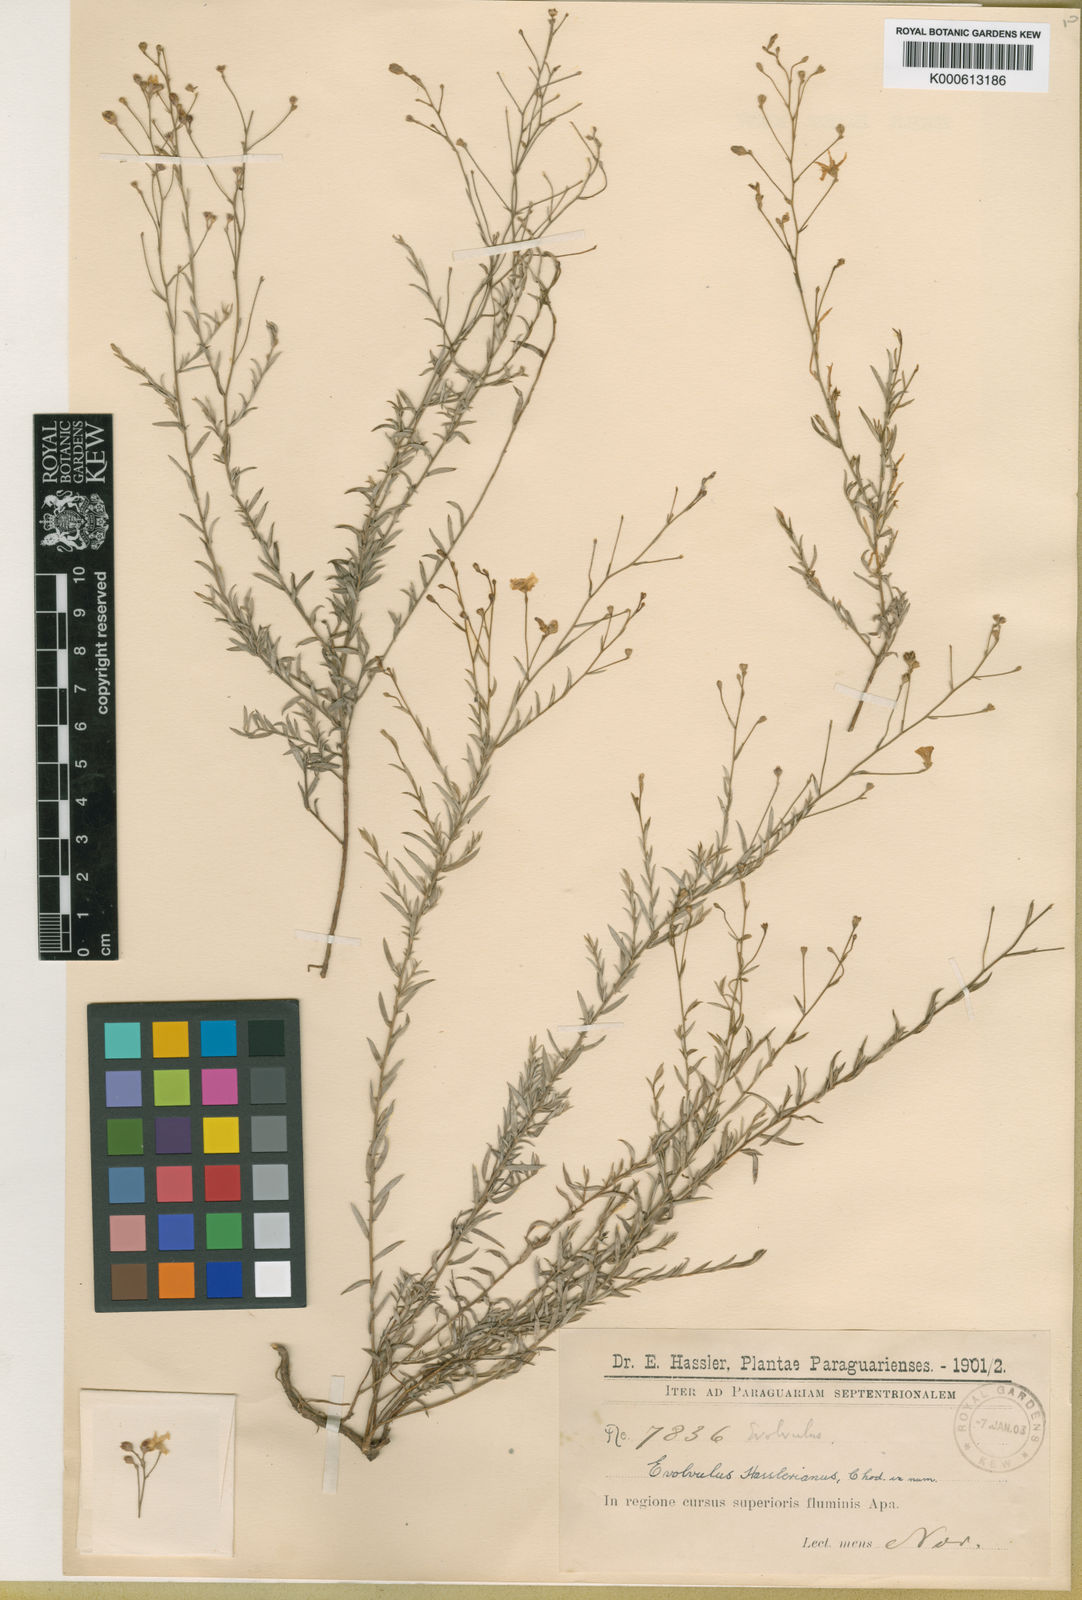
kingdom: Plantae
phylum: Tracheophyta
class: Magnoliopsida
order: Solanales
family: Convolvulaceae
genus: Evolvulus
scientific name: Evolvulus hasslerianus
